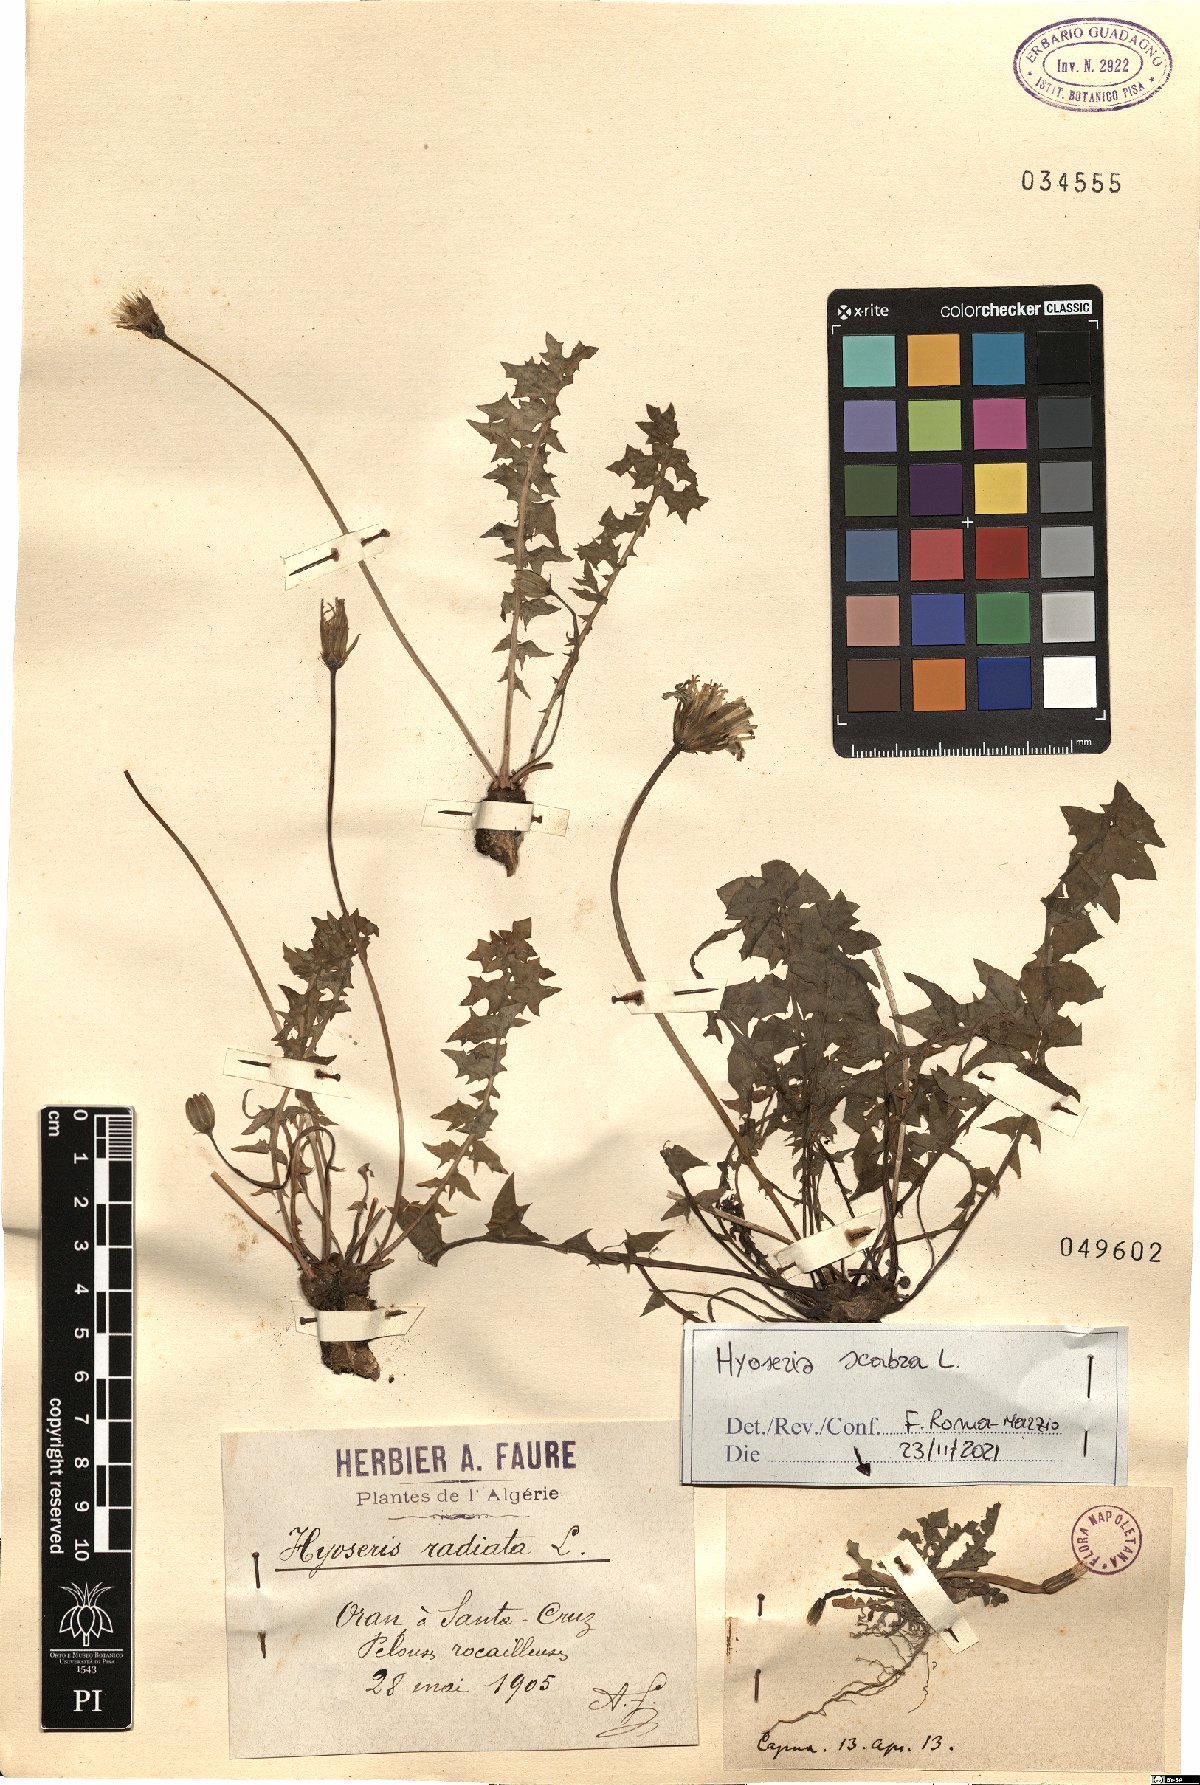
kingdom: Plantae
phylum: Tracheophyta
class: Magnoliopsida
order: Asterales
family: Asteraceae
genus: Hyoseris
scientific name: Hyoseris
